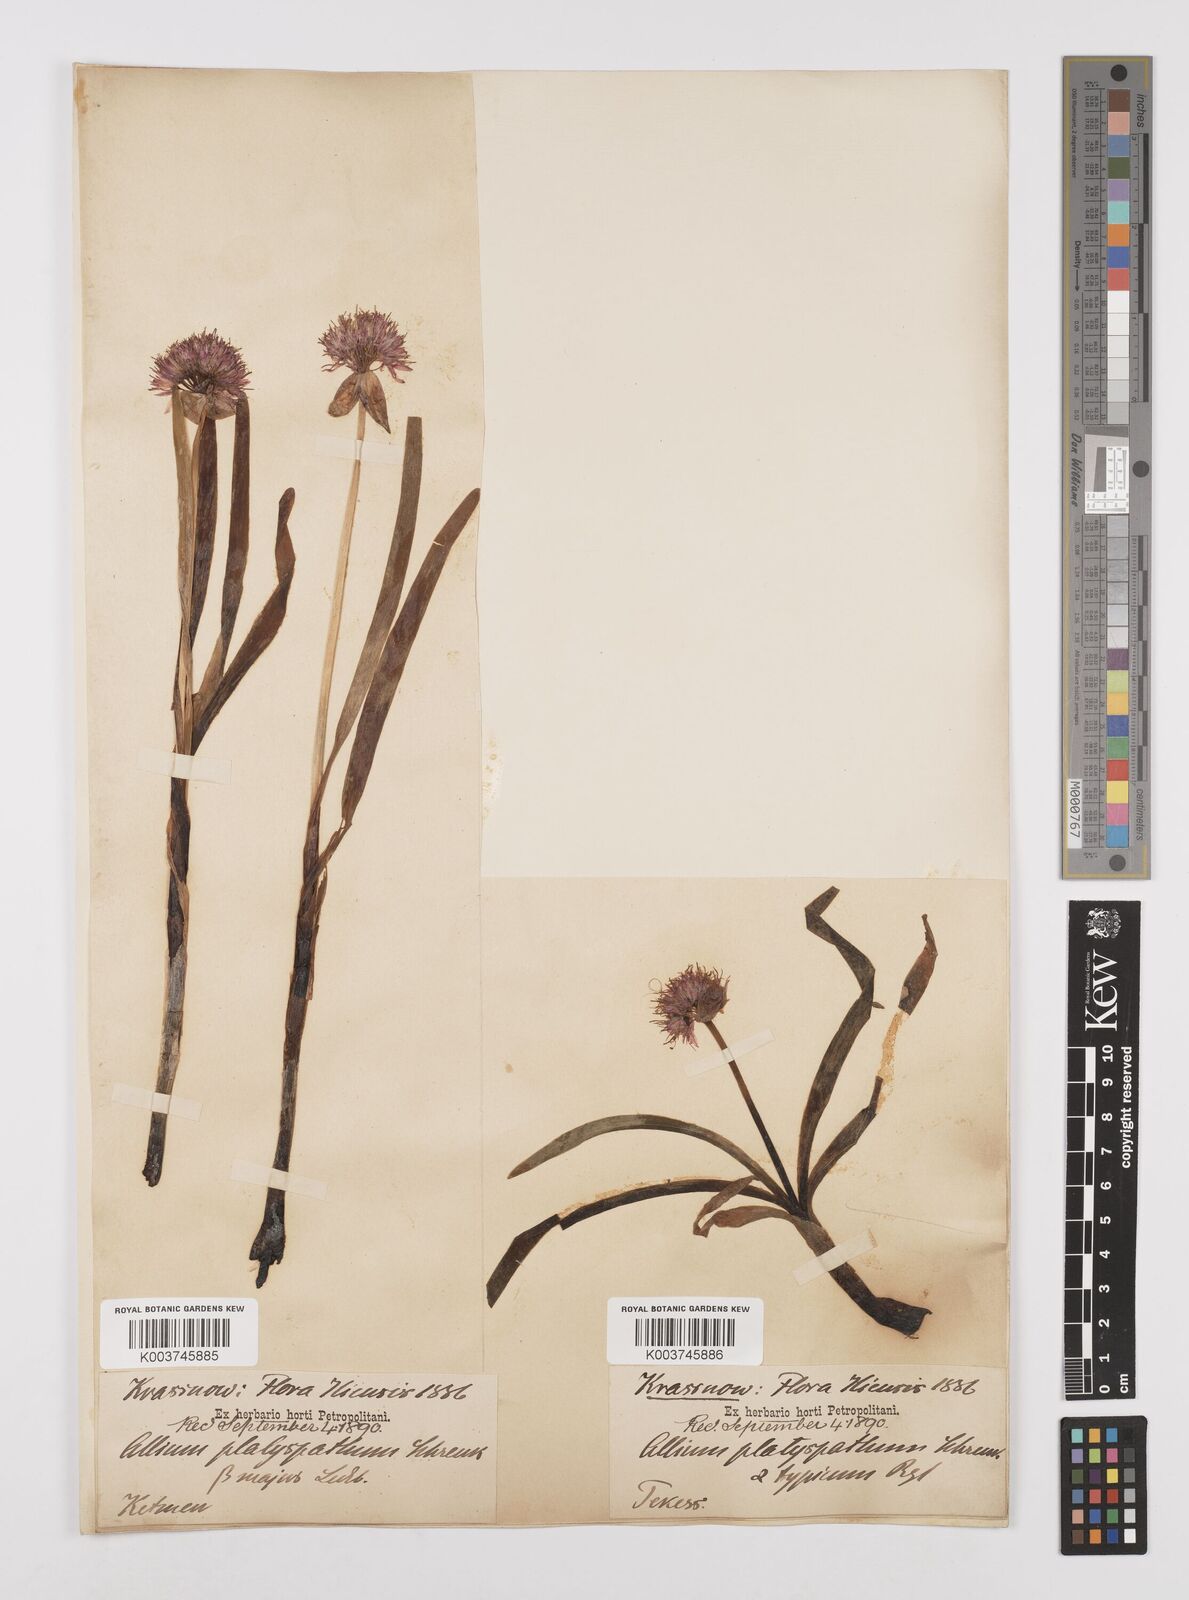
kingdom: Plantae
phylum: Tracheophyta
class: Liliopsida
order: Asparagales
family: Amaryllidaceae
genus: Allium
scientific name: Allium platyspathum
